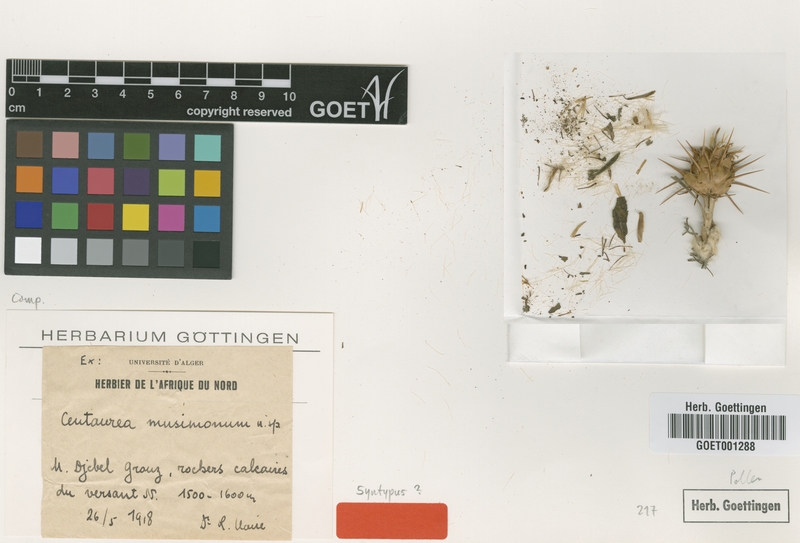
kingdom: Plantae
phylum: Tracheophyta
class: Magnoliopsida
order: Asterales
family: Asteraceae
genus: Centaurea
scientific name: Centaurea musimonum
